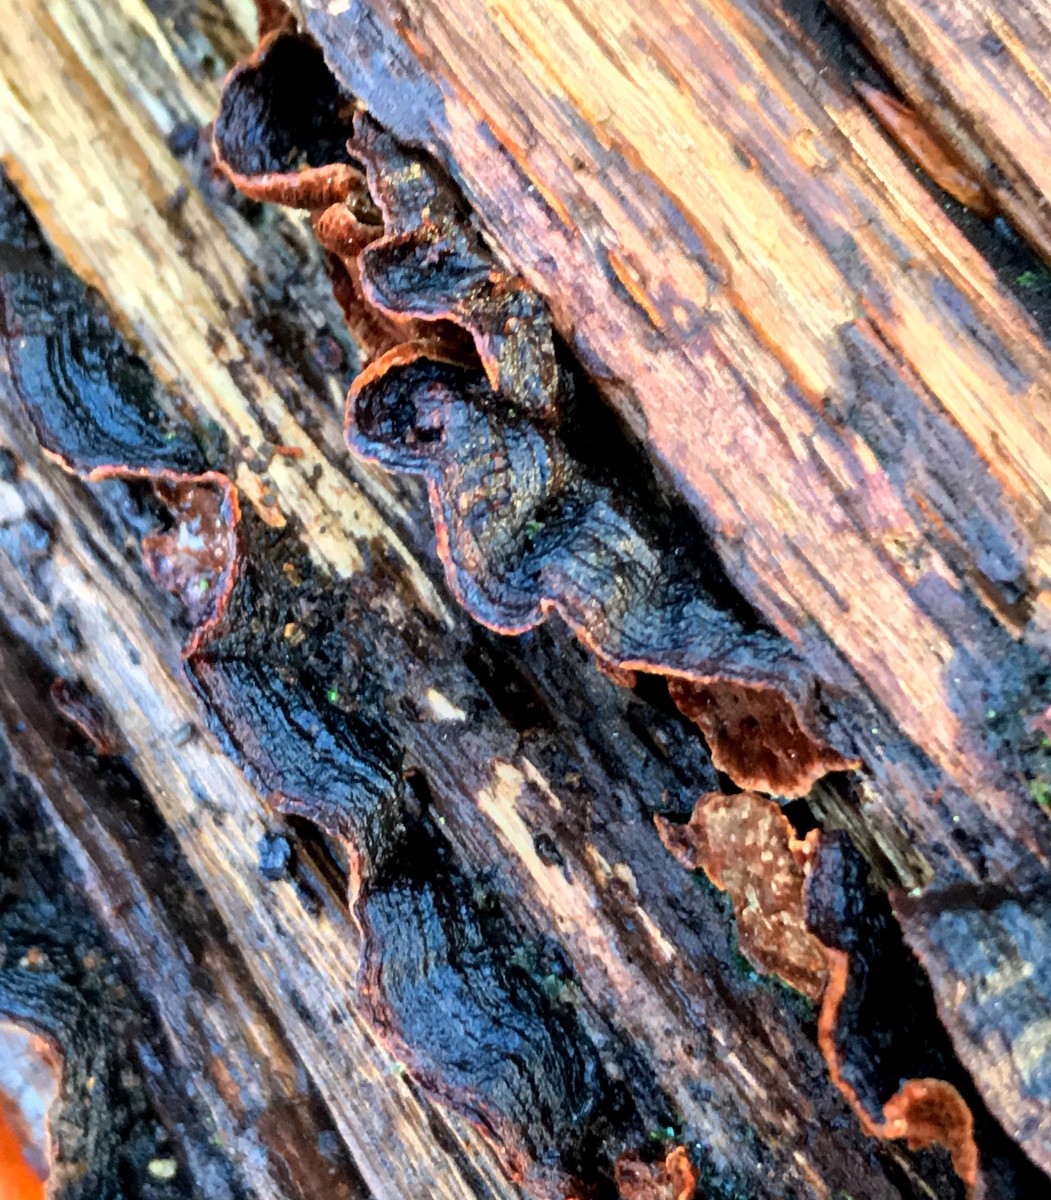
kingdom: Fungi
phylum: Basidiomycota
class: Agaricomycetes
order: Hymenochaetales
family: Hymenochaetaceae
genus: Hymenochaete
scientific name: Hymenochaete rubiginosa
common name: stiv ruslædersvamp
